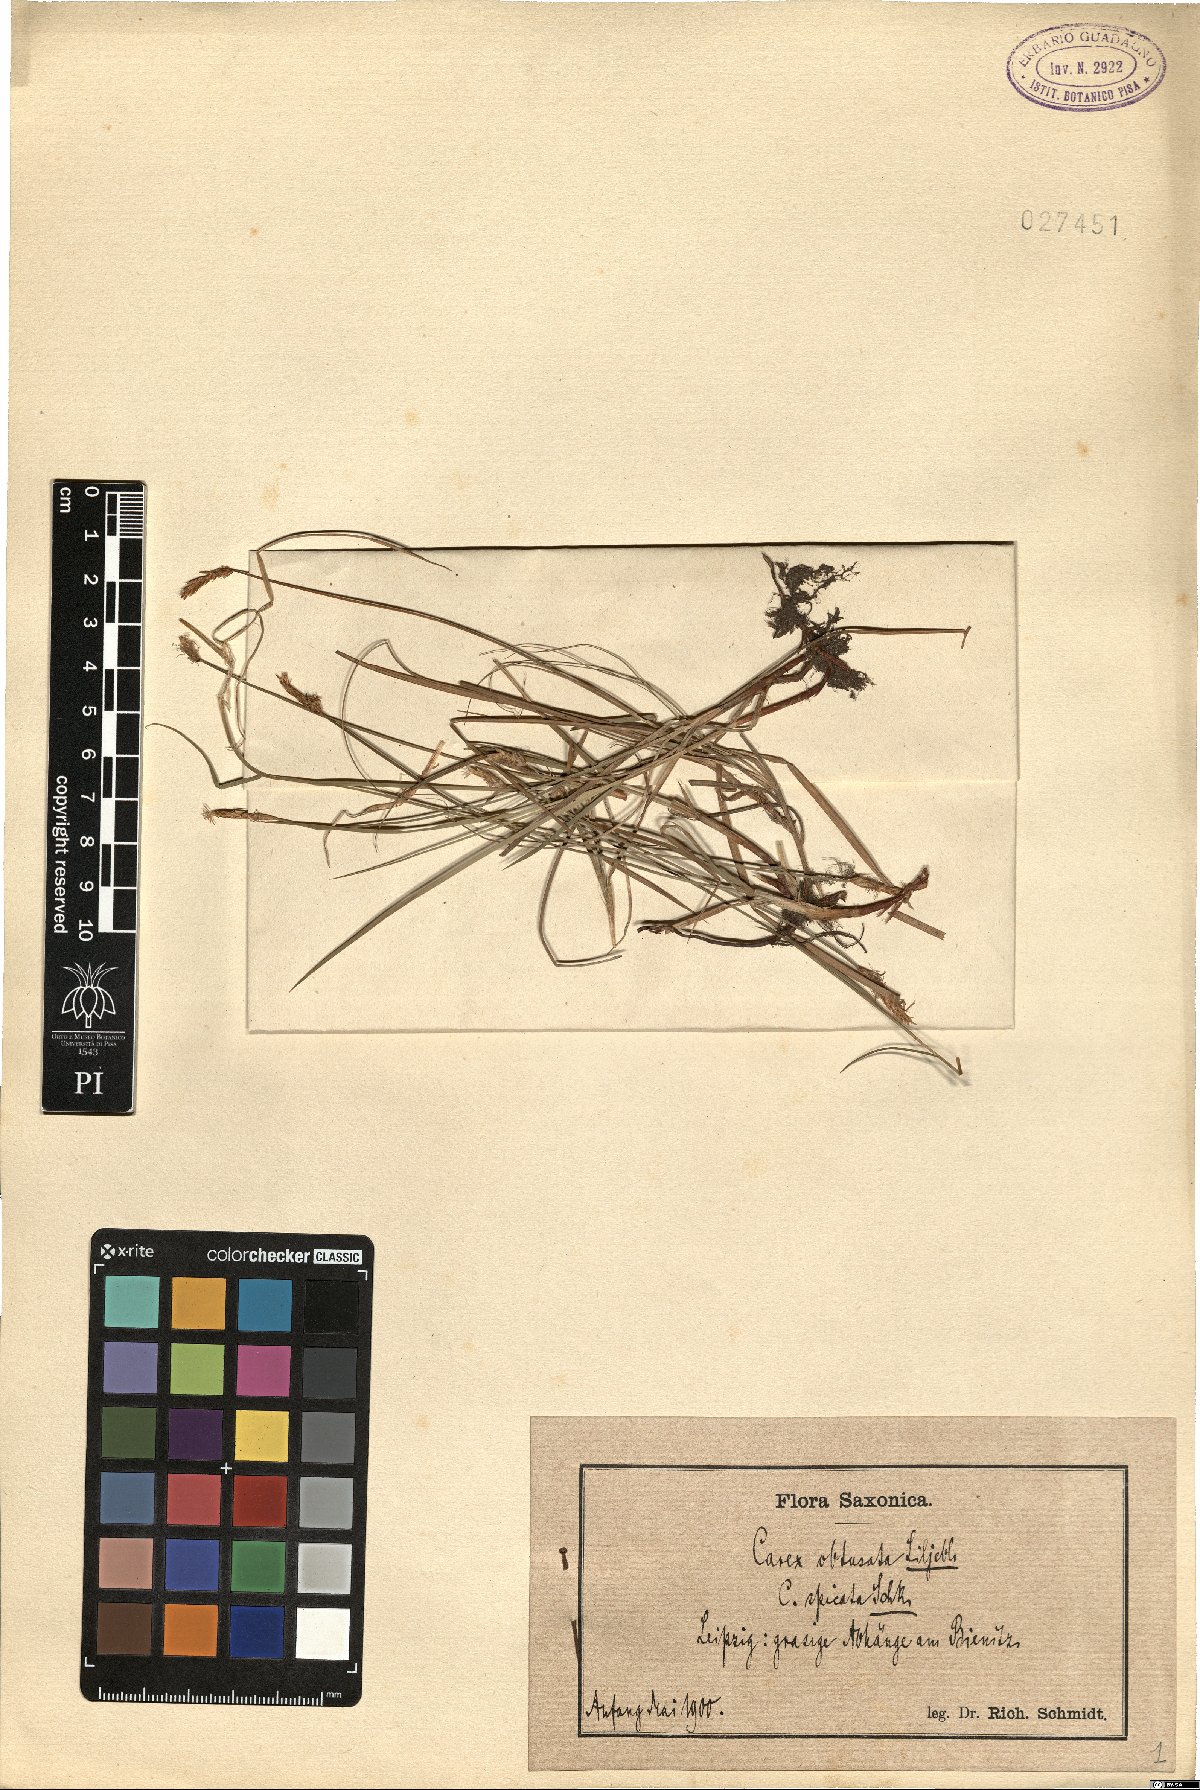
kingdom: Plantae
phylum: Tracheophyta
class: Liliopsida
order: Poales
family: Cyperaceae
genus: Carex
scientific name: Carex obtusata
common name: Blunt sedge
